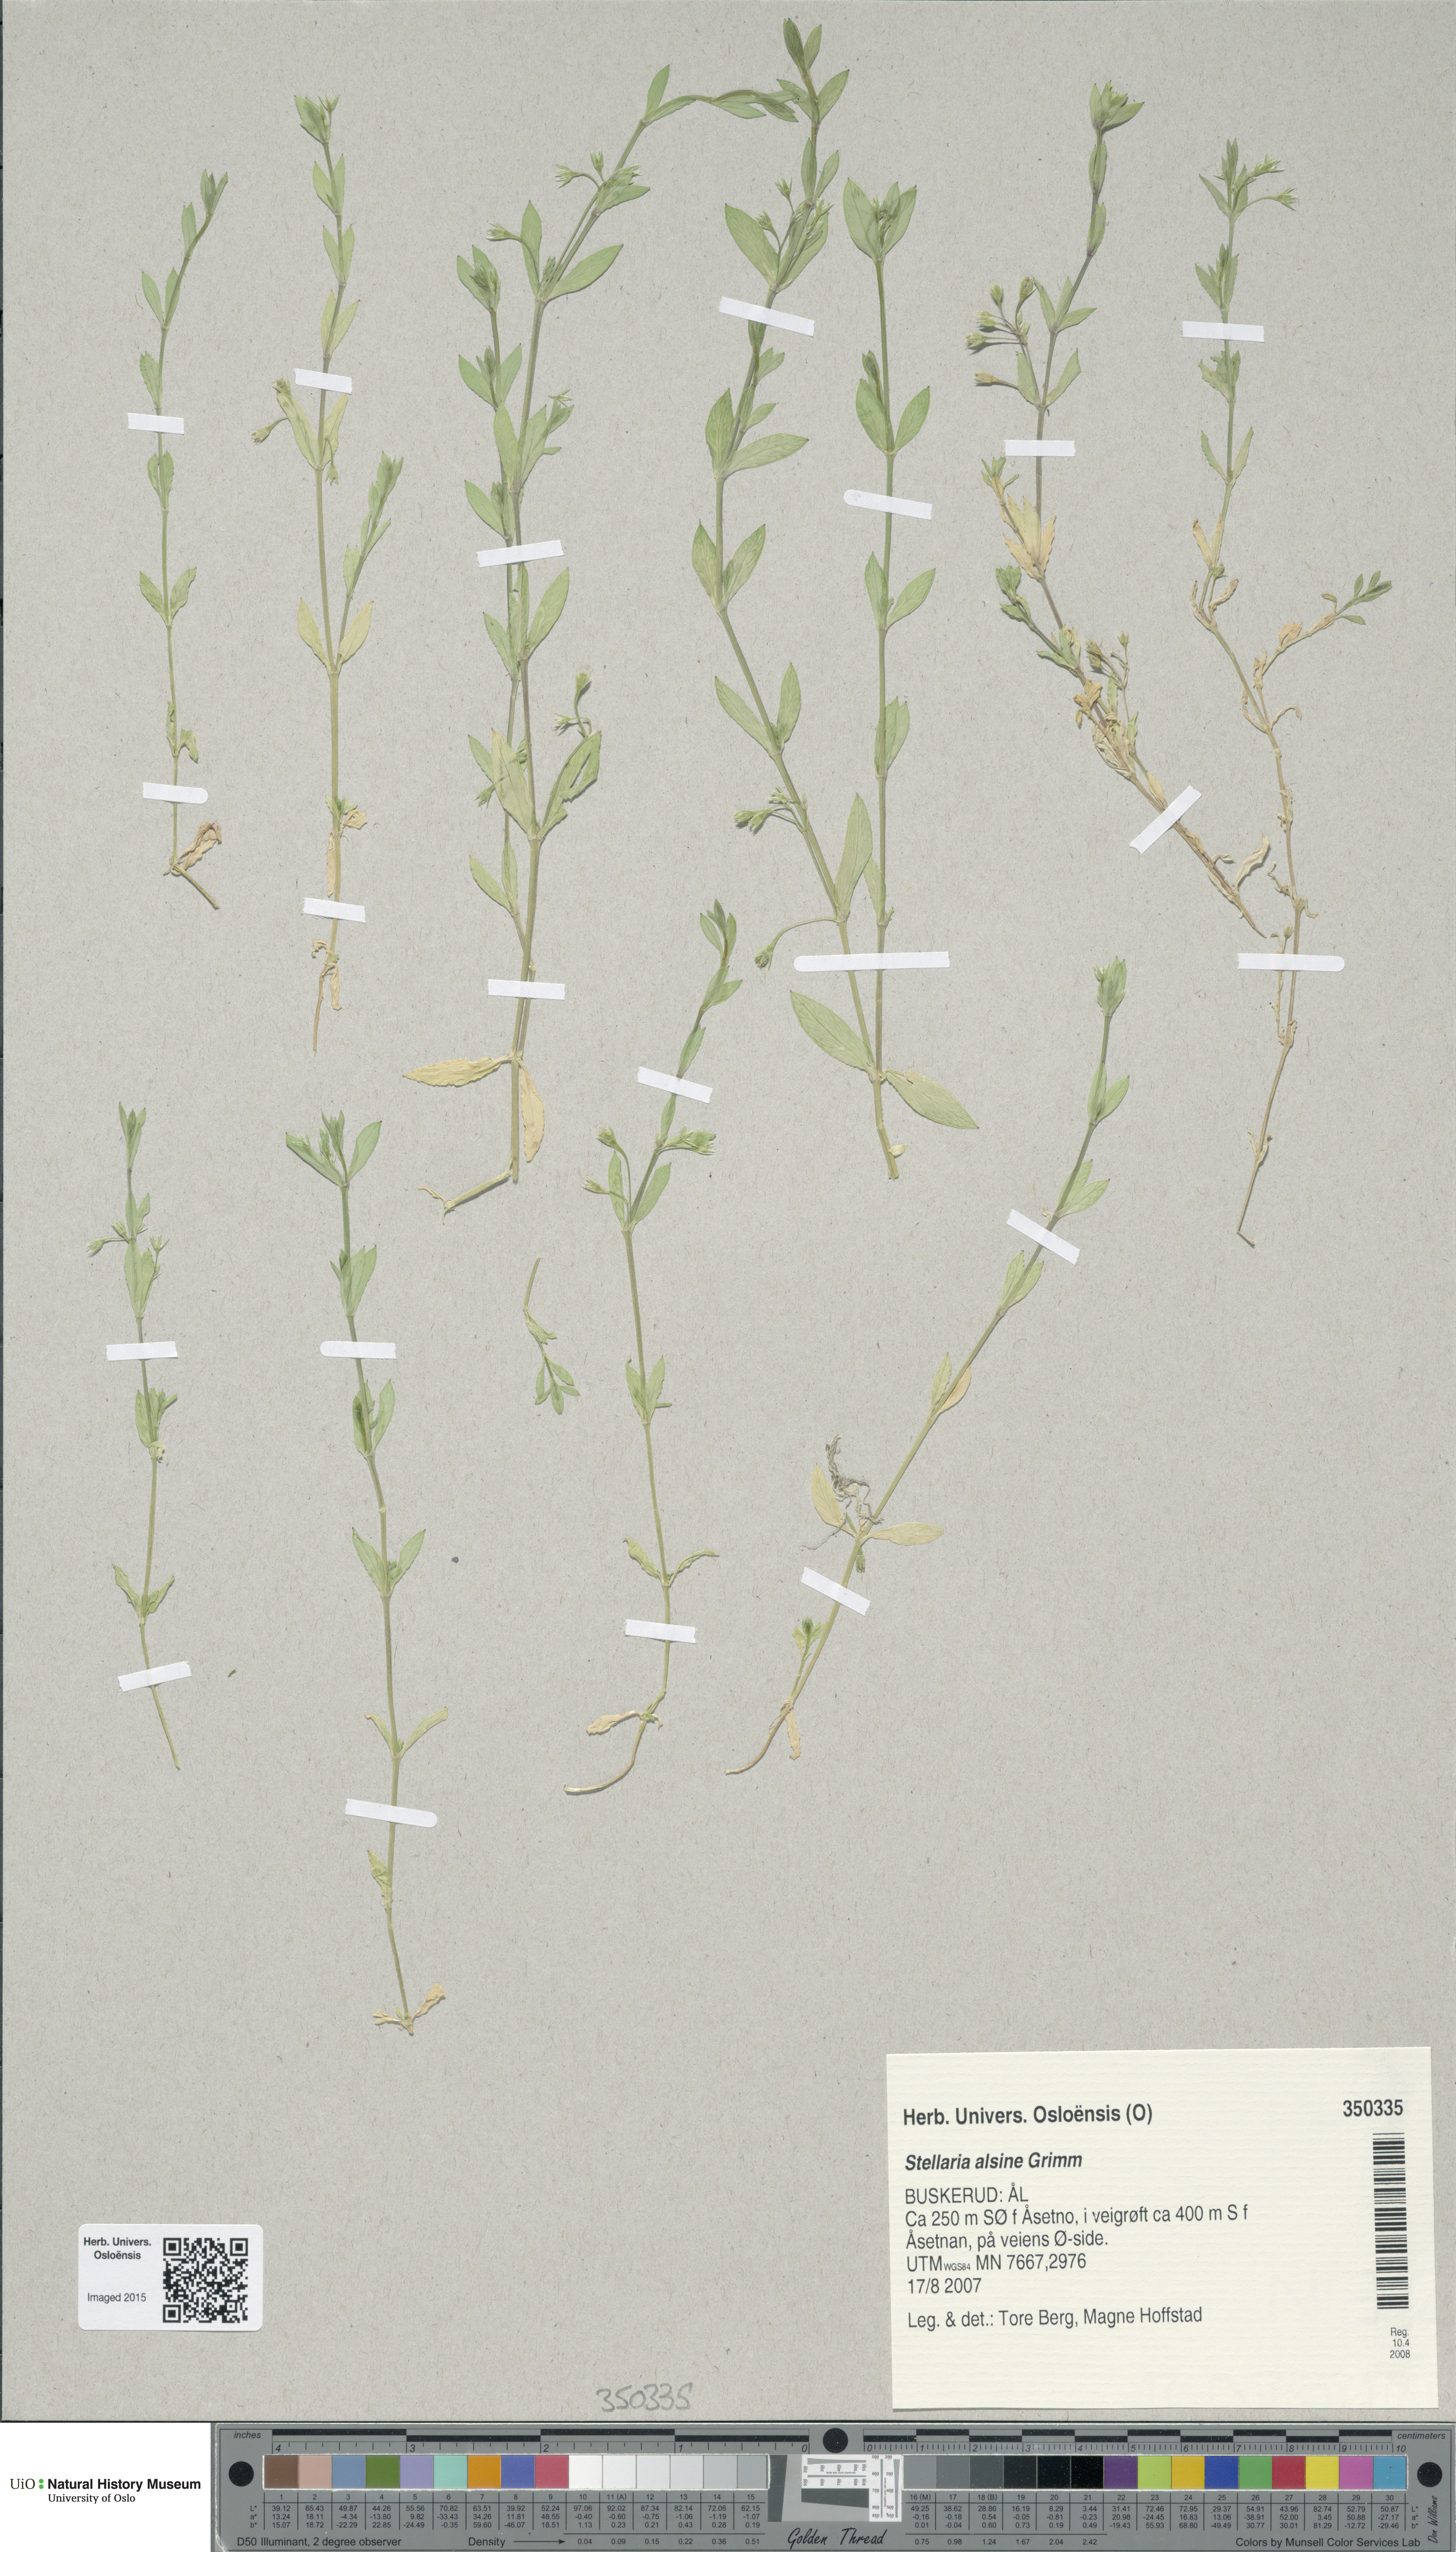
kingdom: Plantae
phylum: Tracheophyta
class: Magnoliopsida
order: Caryophyllales
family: Caryophyllaceae
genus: Stellaria
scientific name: Stellaria alsine
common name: Bog stitchwort
